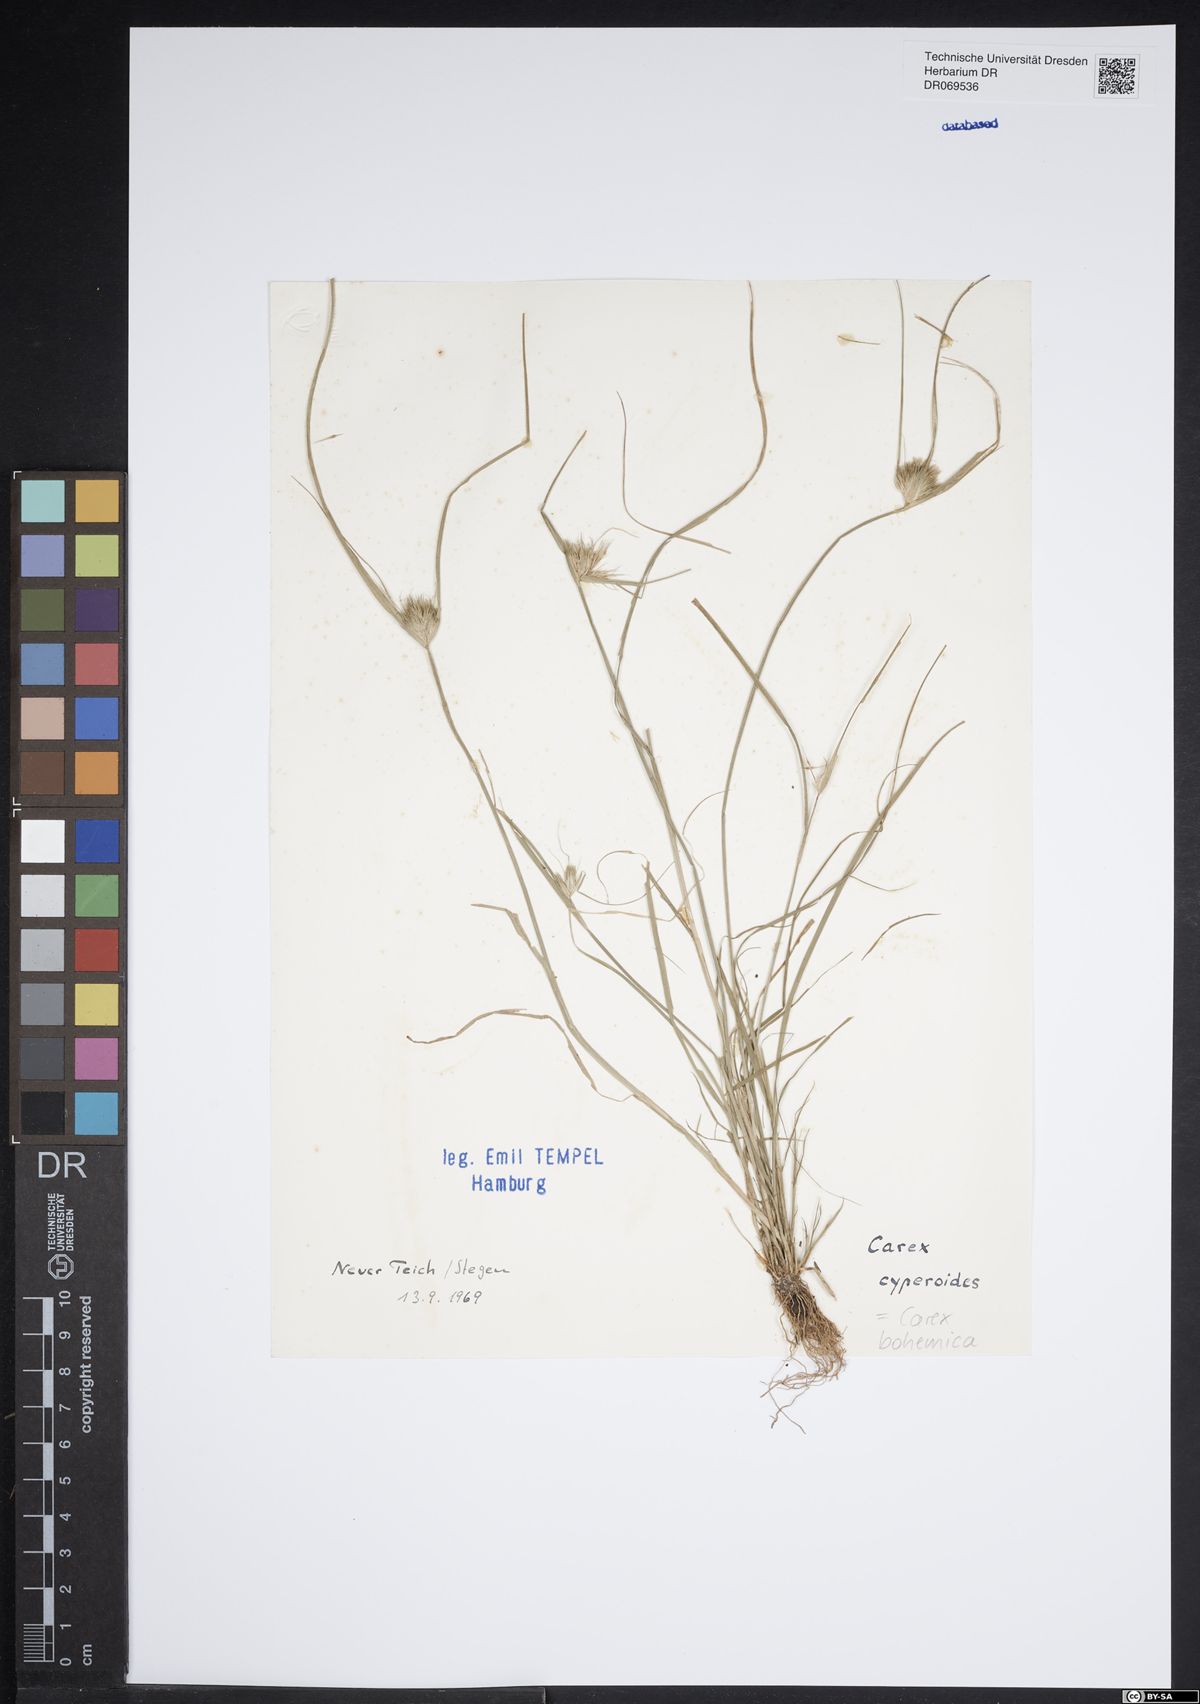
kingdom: Plantae
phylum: Tracheophyta
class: Liliopsida
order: Poales
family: Cyperaceae
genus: Carex
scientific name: Carex bohemica
